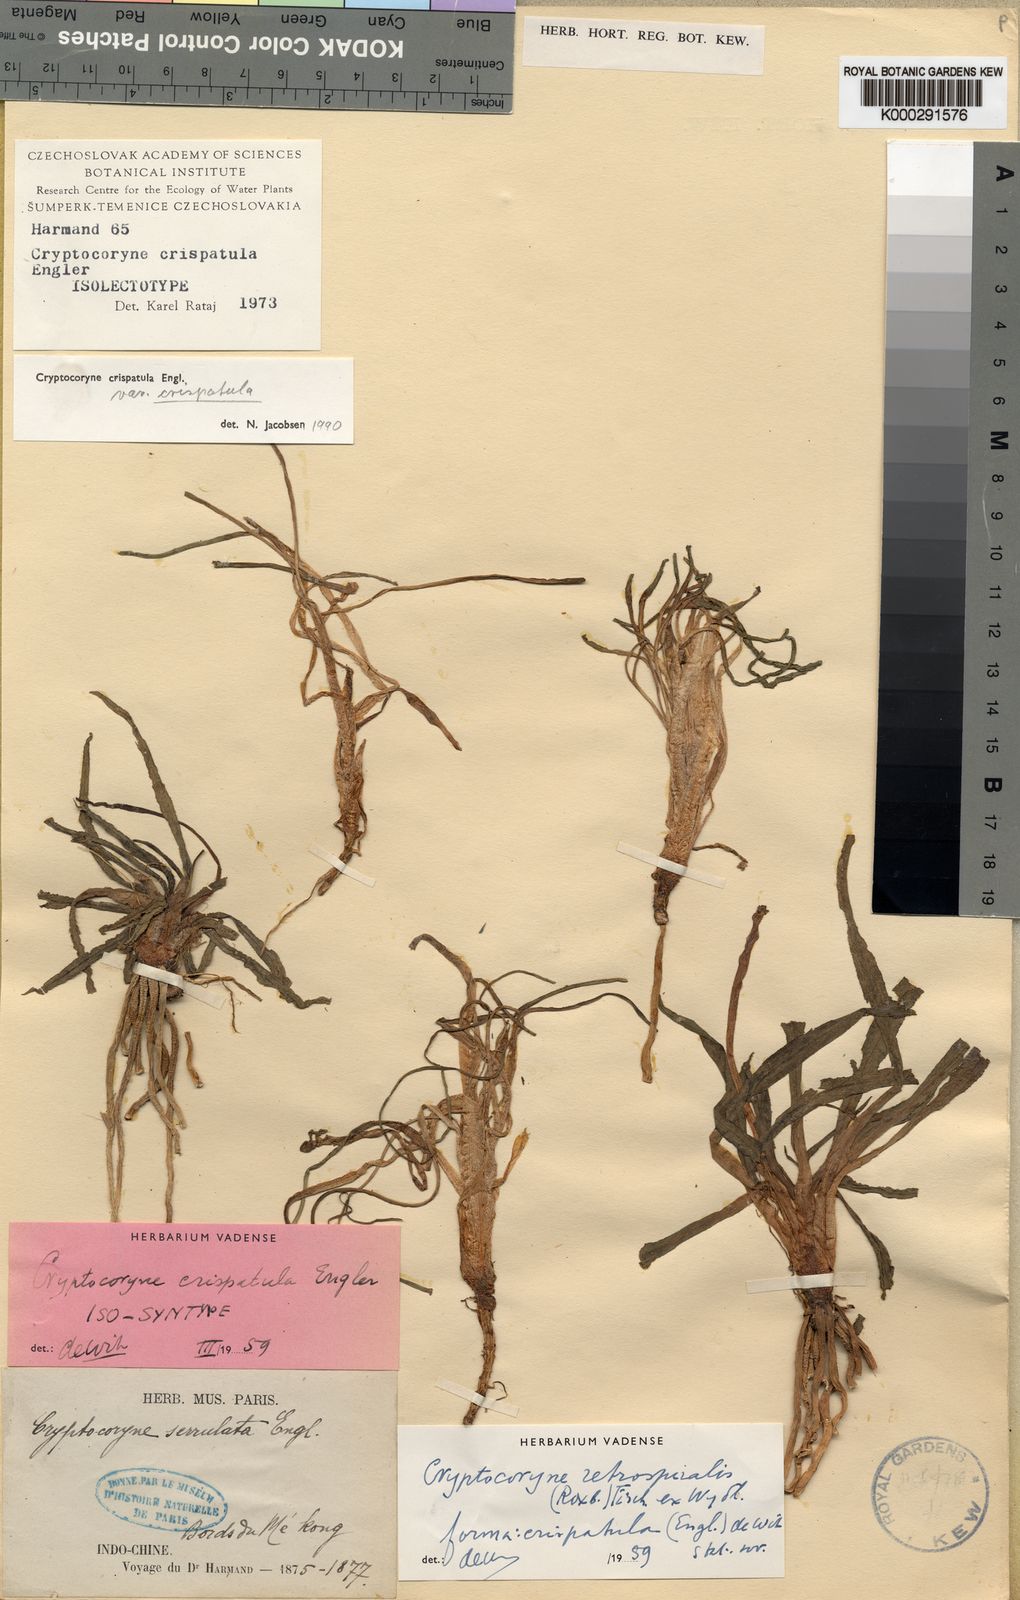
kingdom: Plantae
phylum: Tracheophyta
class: Liliopsida
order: Alismatales
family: Araceae
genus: Cryptocoryne
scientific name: Cryptocoryne crispatula
